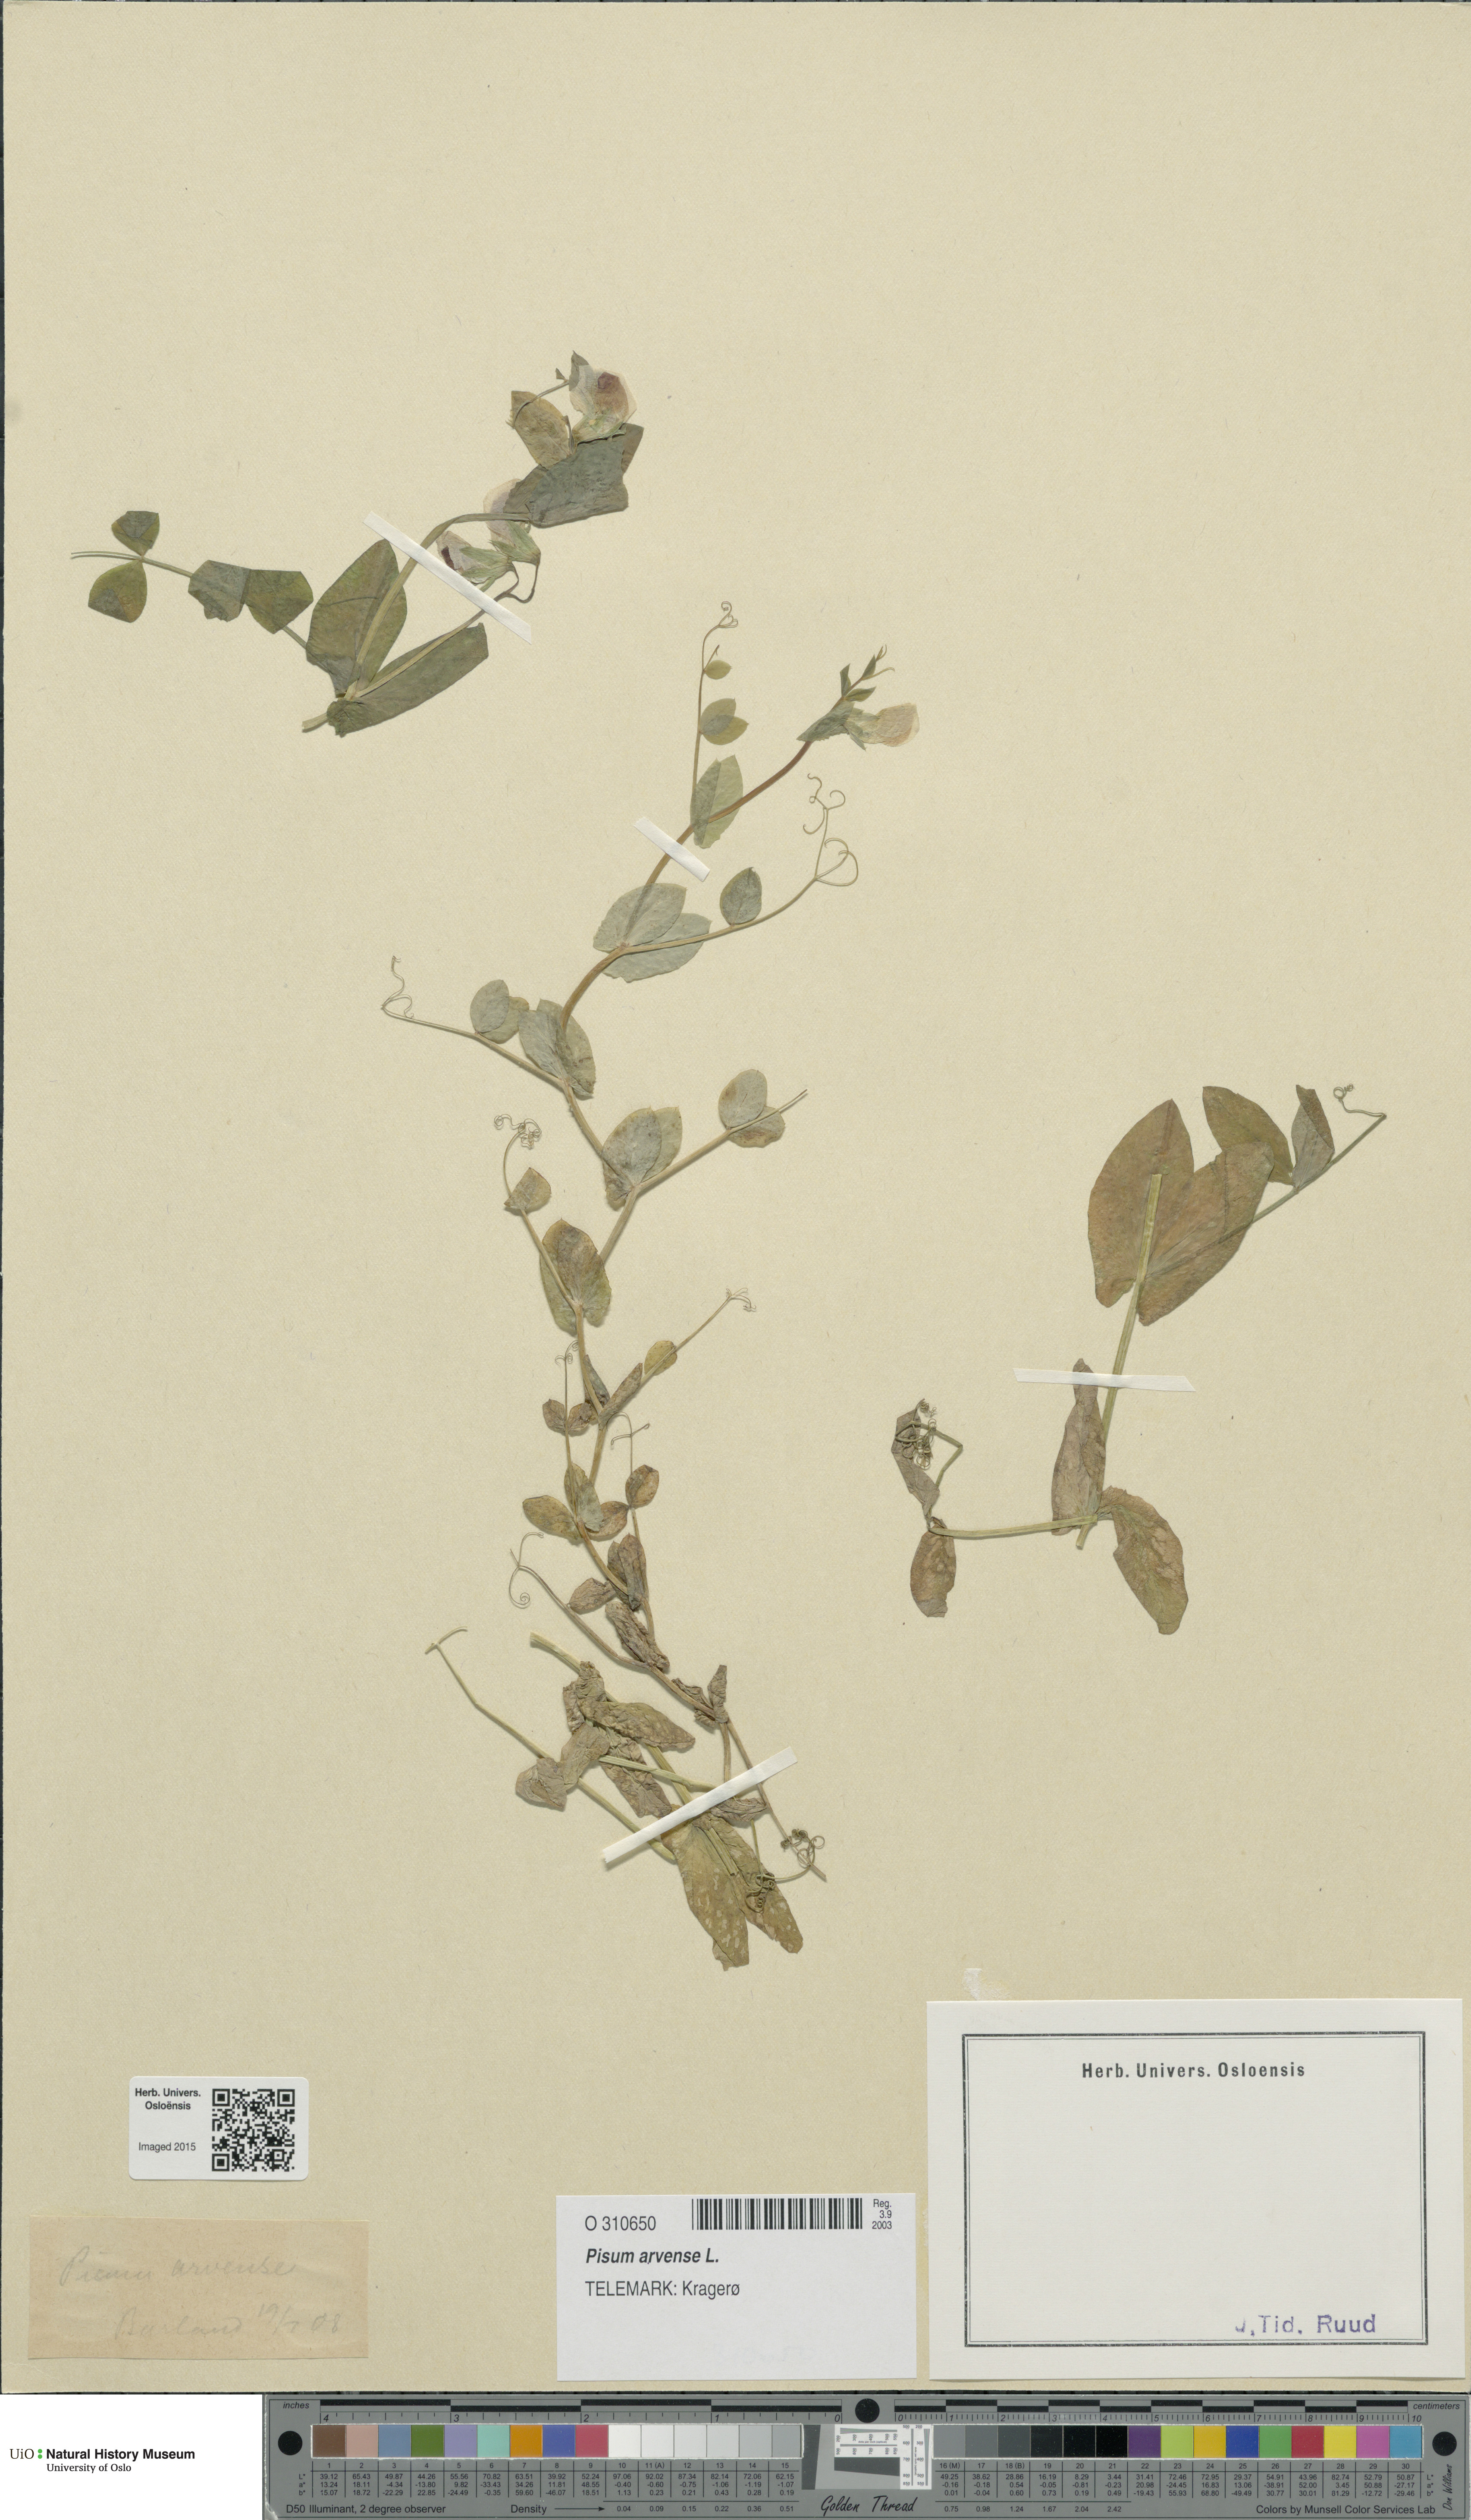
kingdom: Plantae
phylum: Tracheophyta
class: Magnoliopsida
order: Fabales
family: Fabaceae
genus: Lathyrus
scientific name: Lathyrus oleraceus
